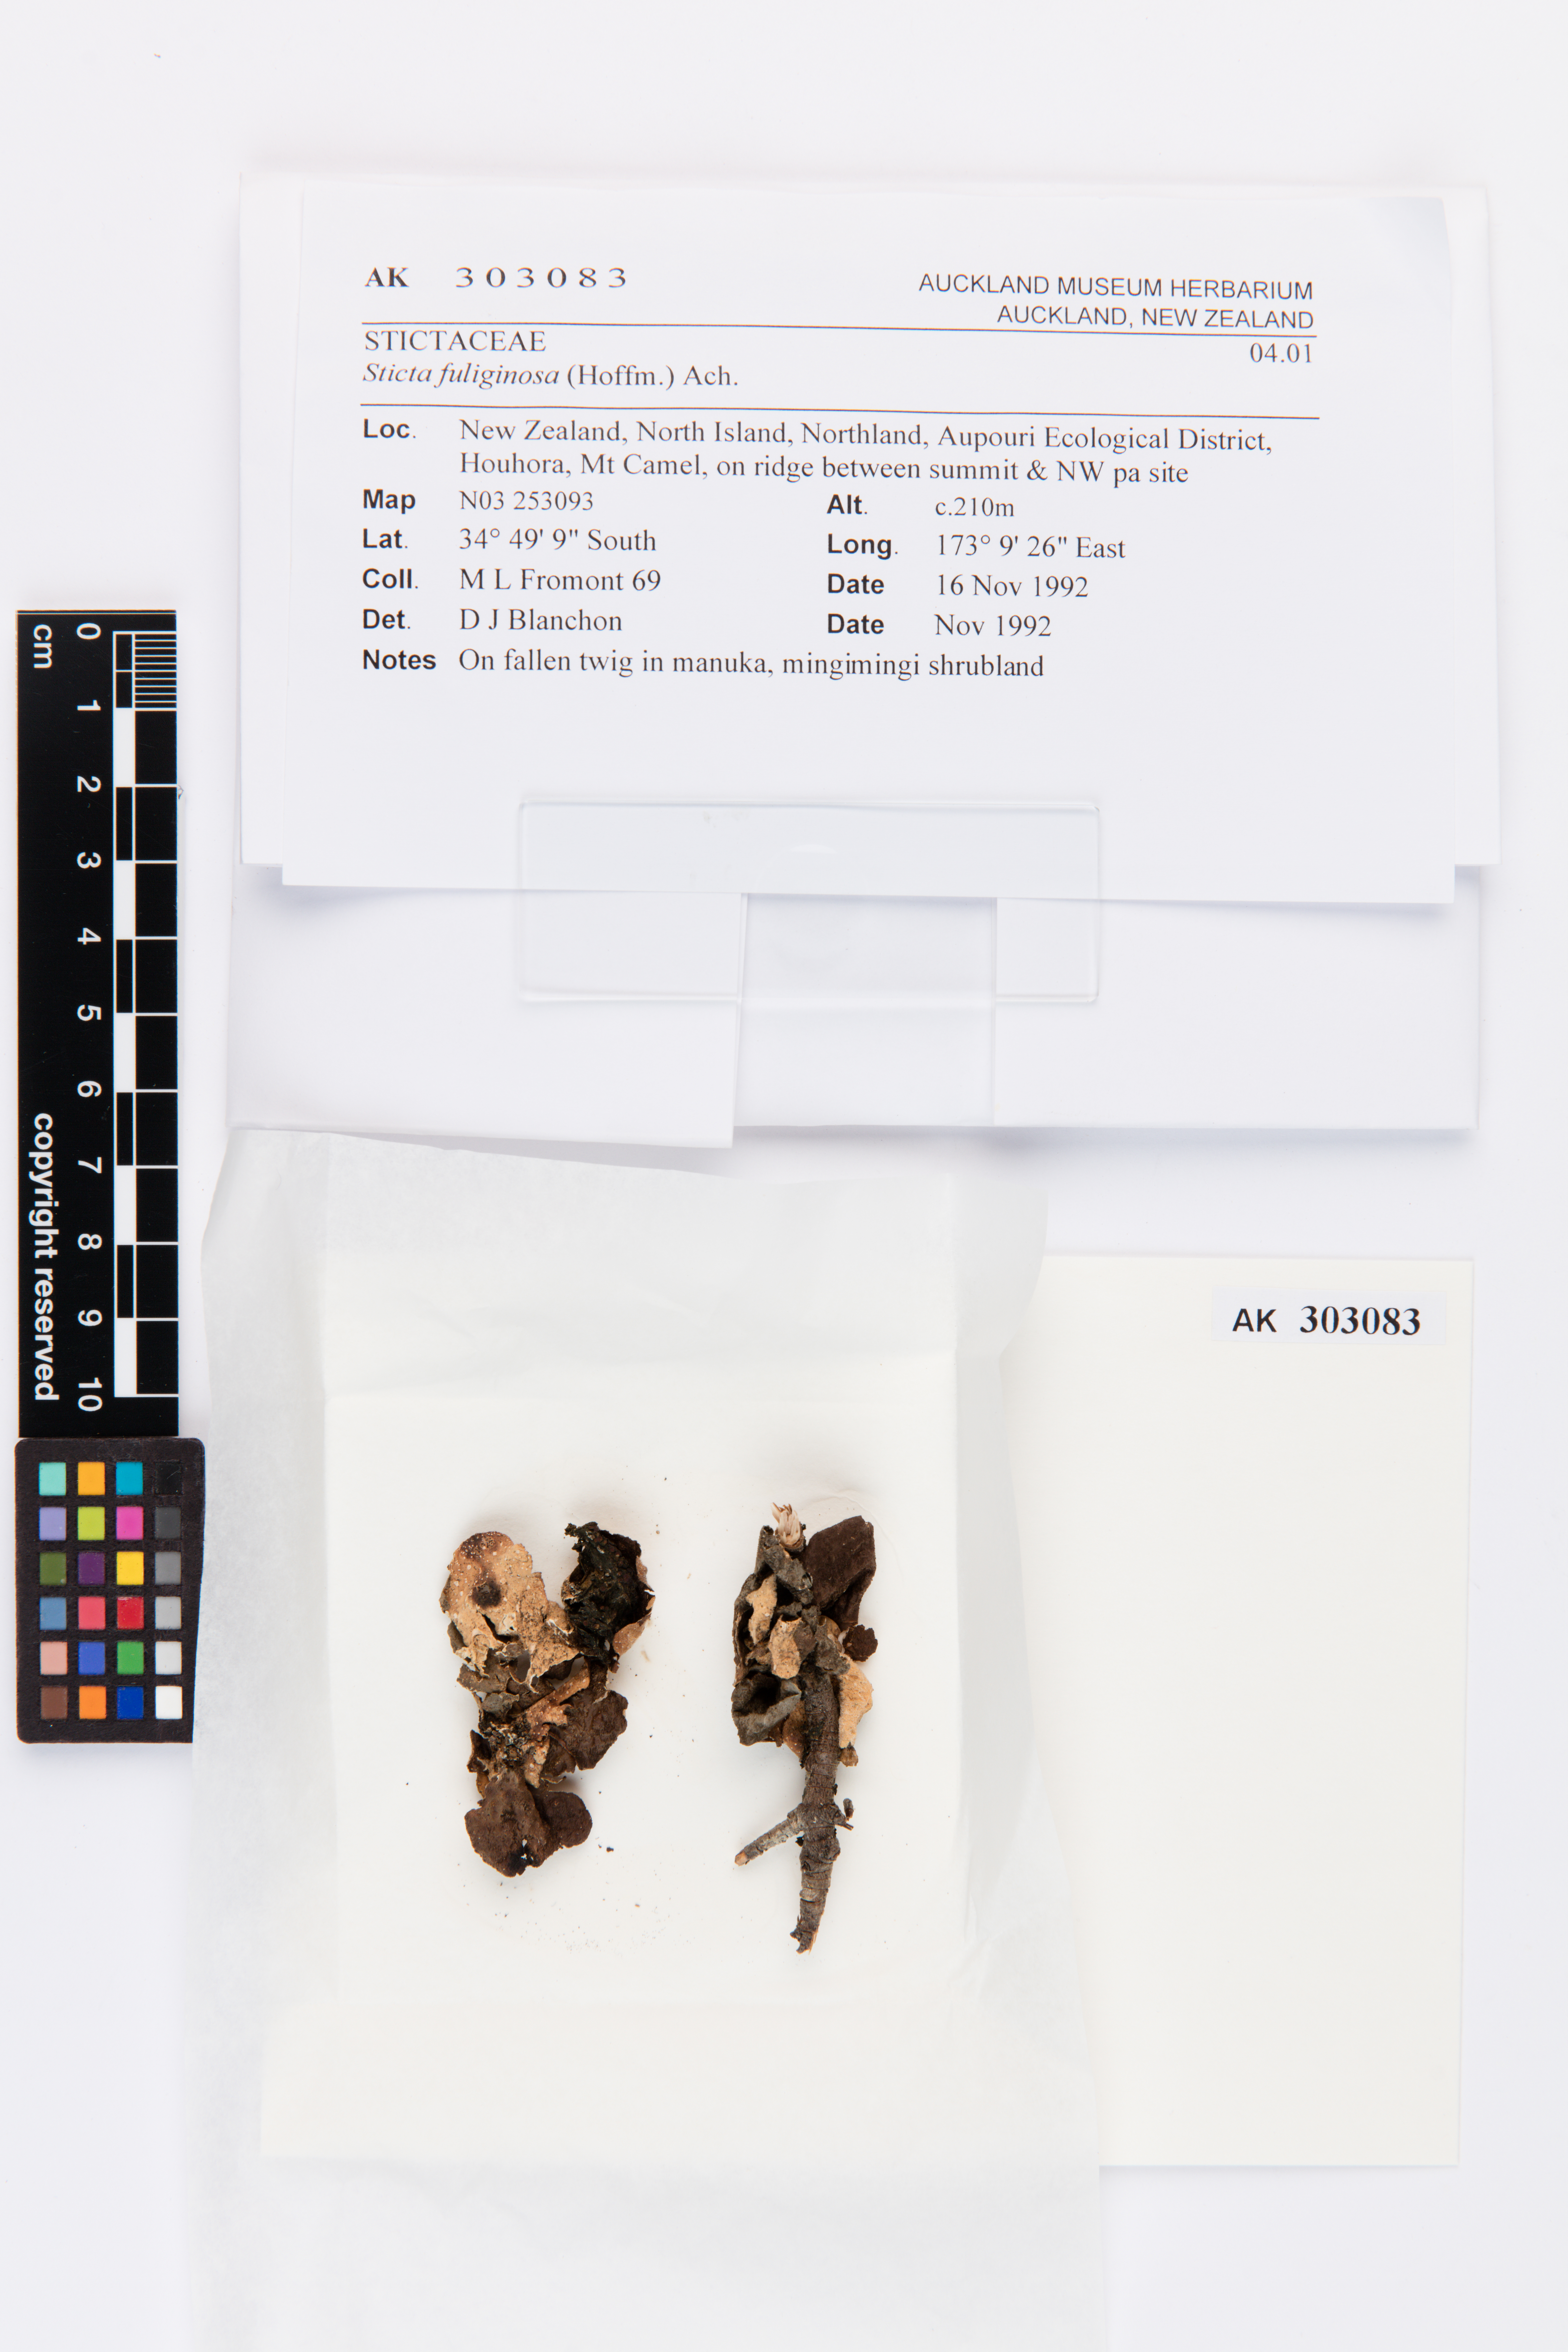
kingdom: Fungi
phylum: Ascomycota
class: Lecanoromycetes
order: Peltigerales
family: Lobariaceae
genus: Sticta
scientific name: Sticta fuliginosa
